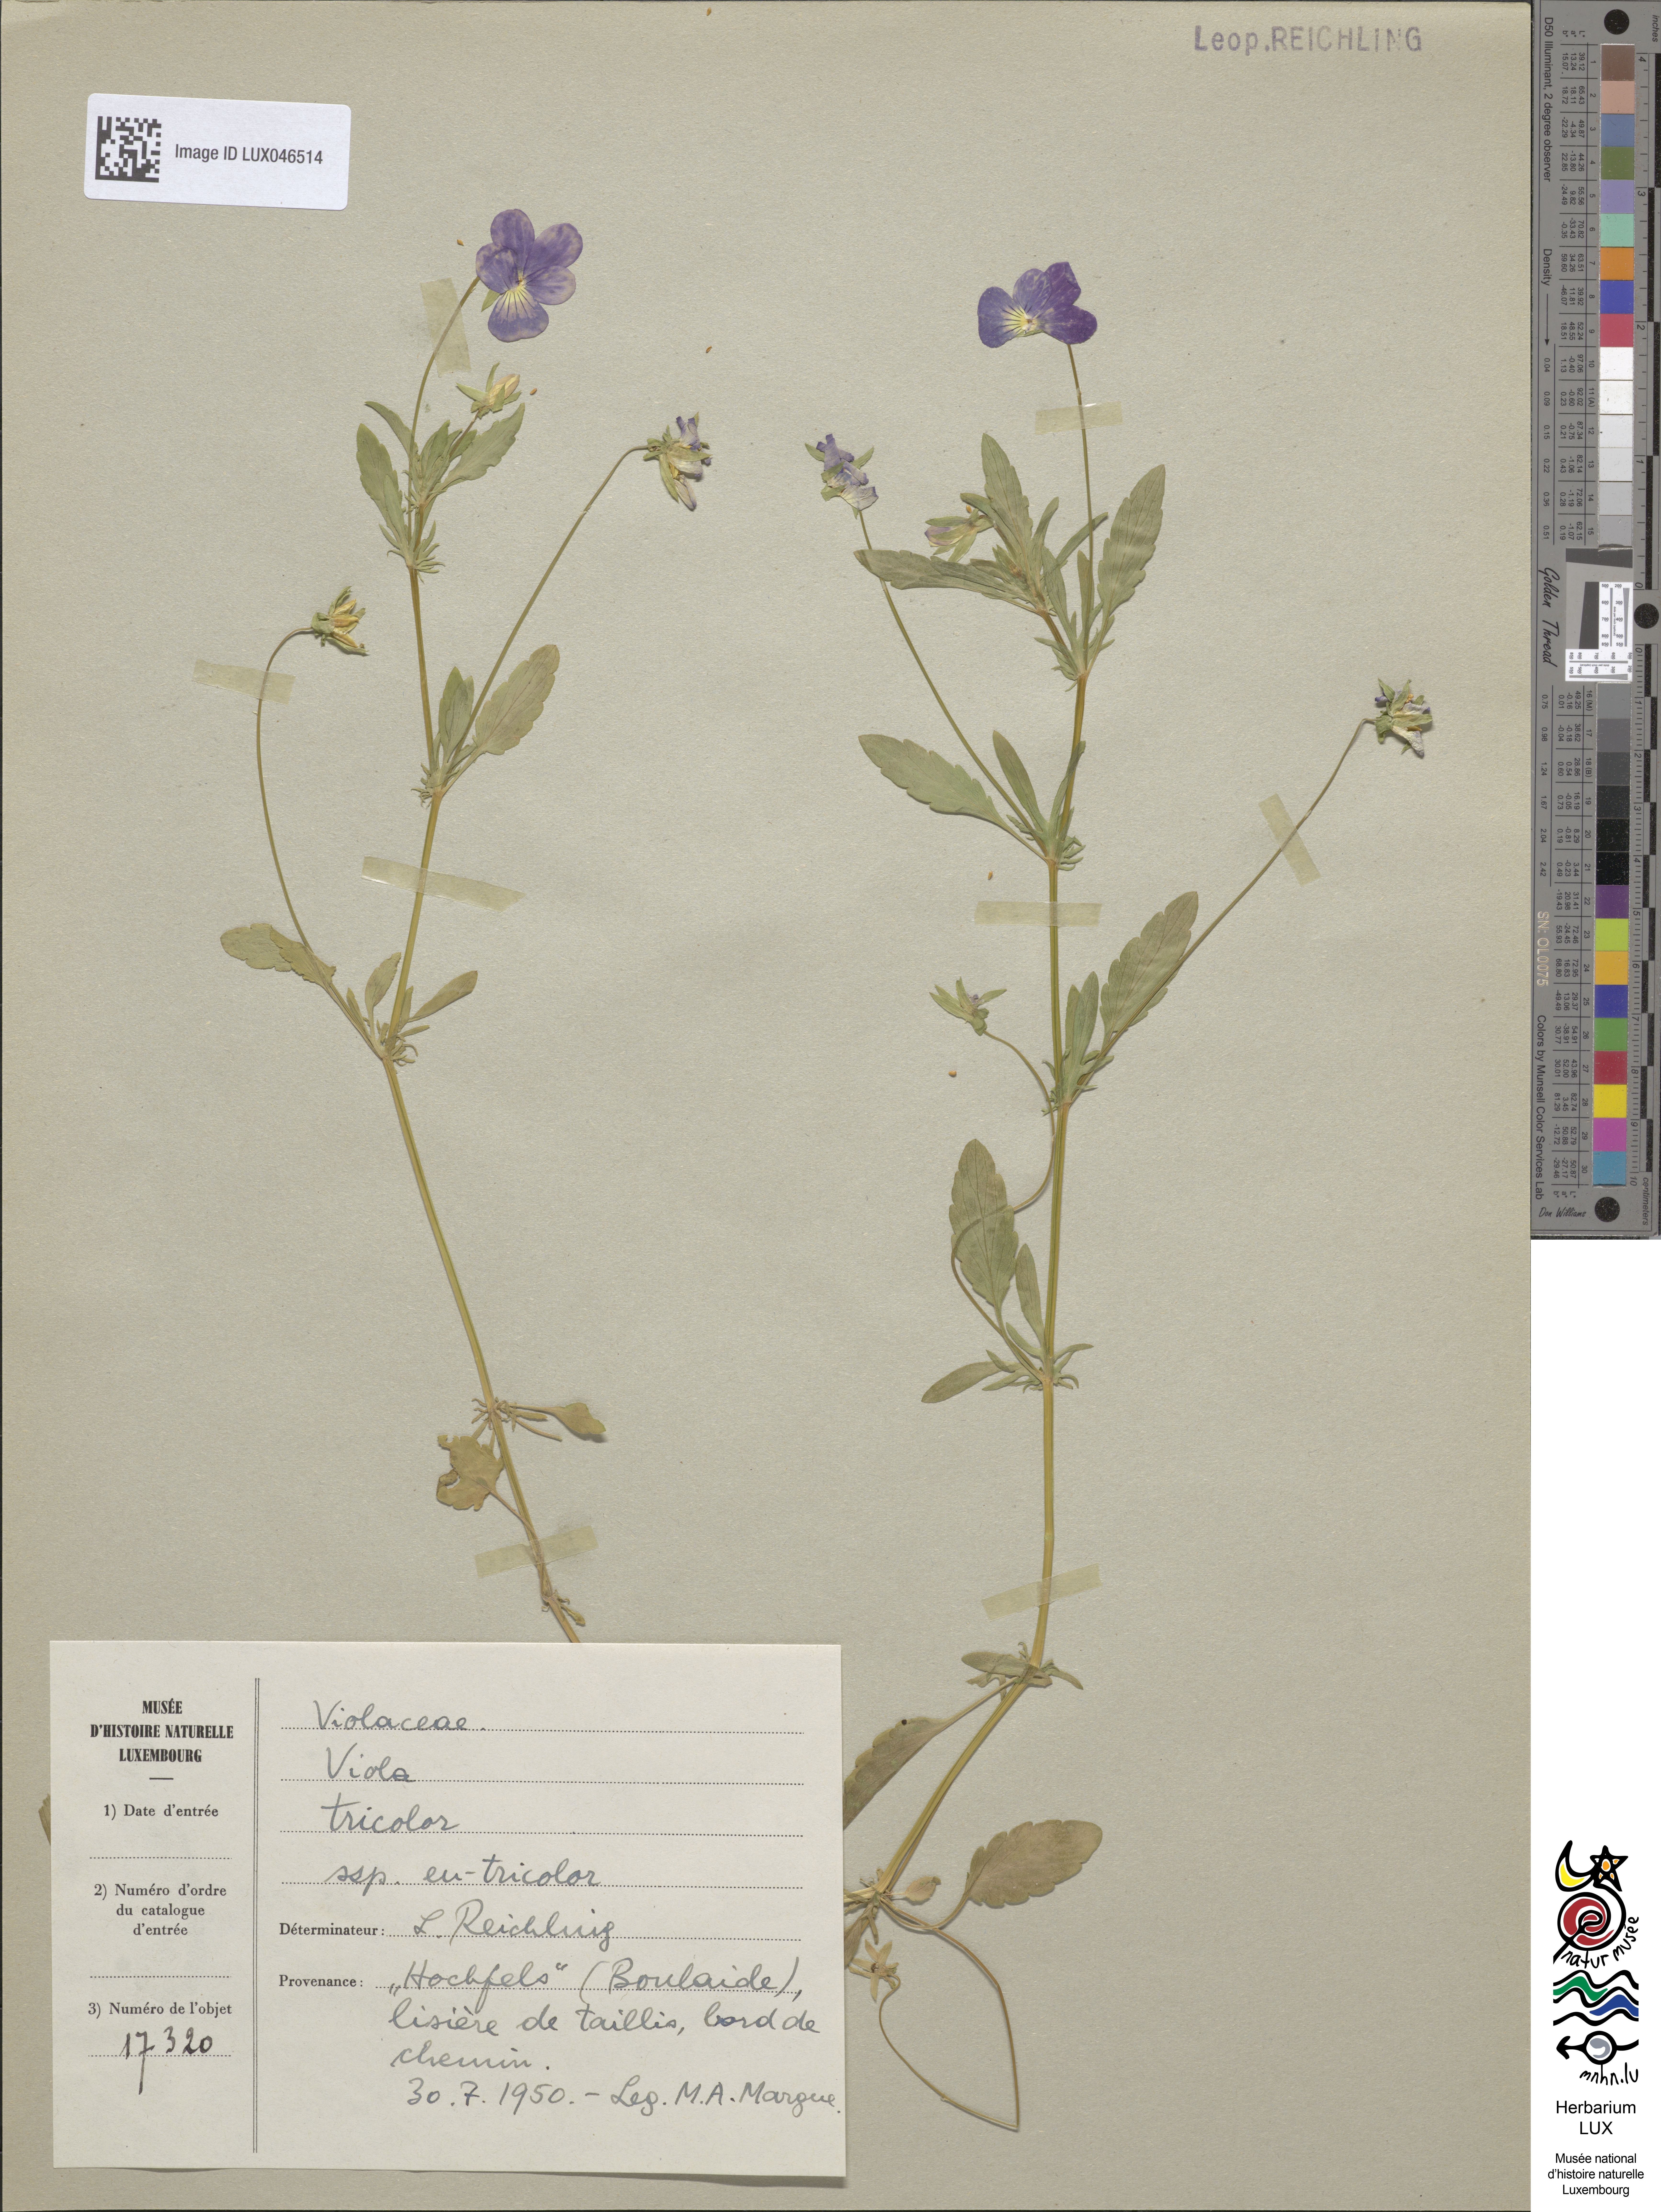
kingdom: Plantae
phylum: Tracheophyta
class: Magnoliopsida
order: Malpighiales
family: Violaceae
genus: Viola
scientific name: Viola tricolor
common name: Pansy
